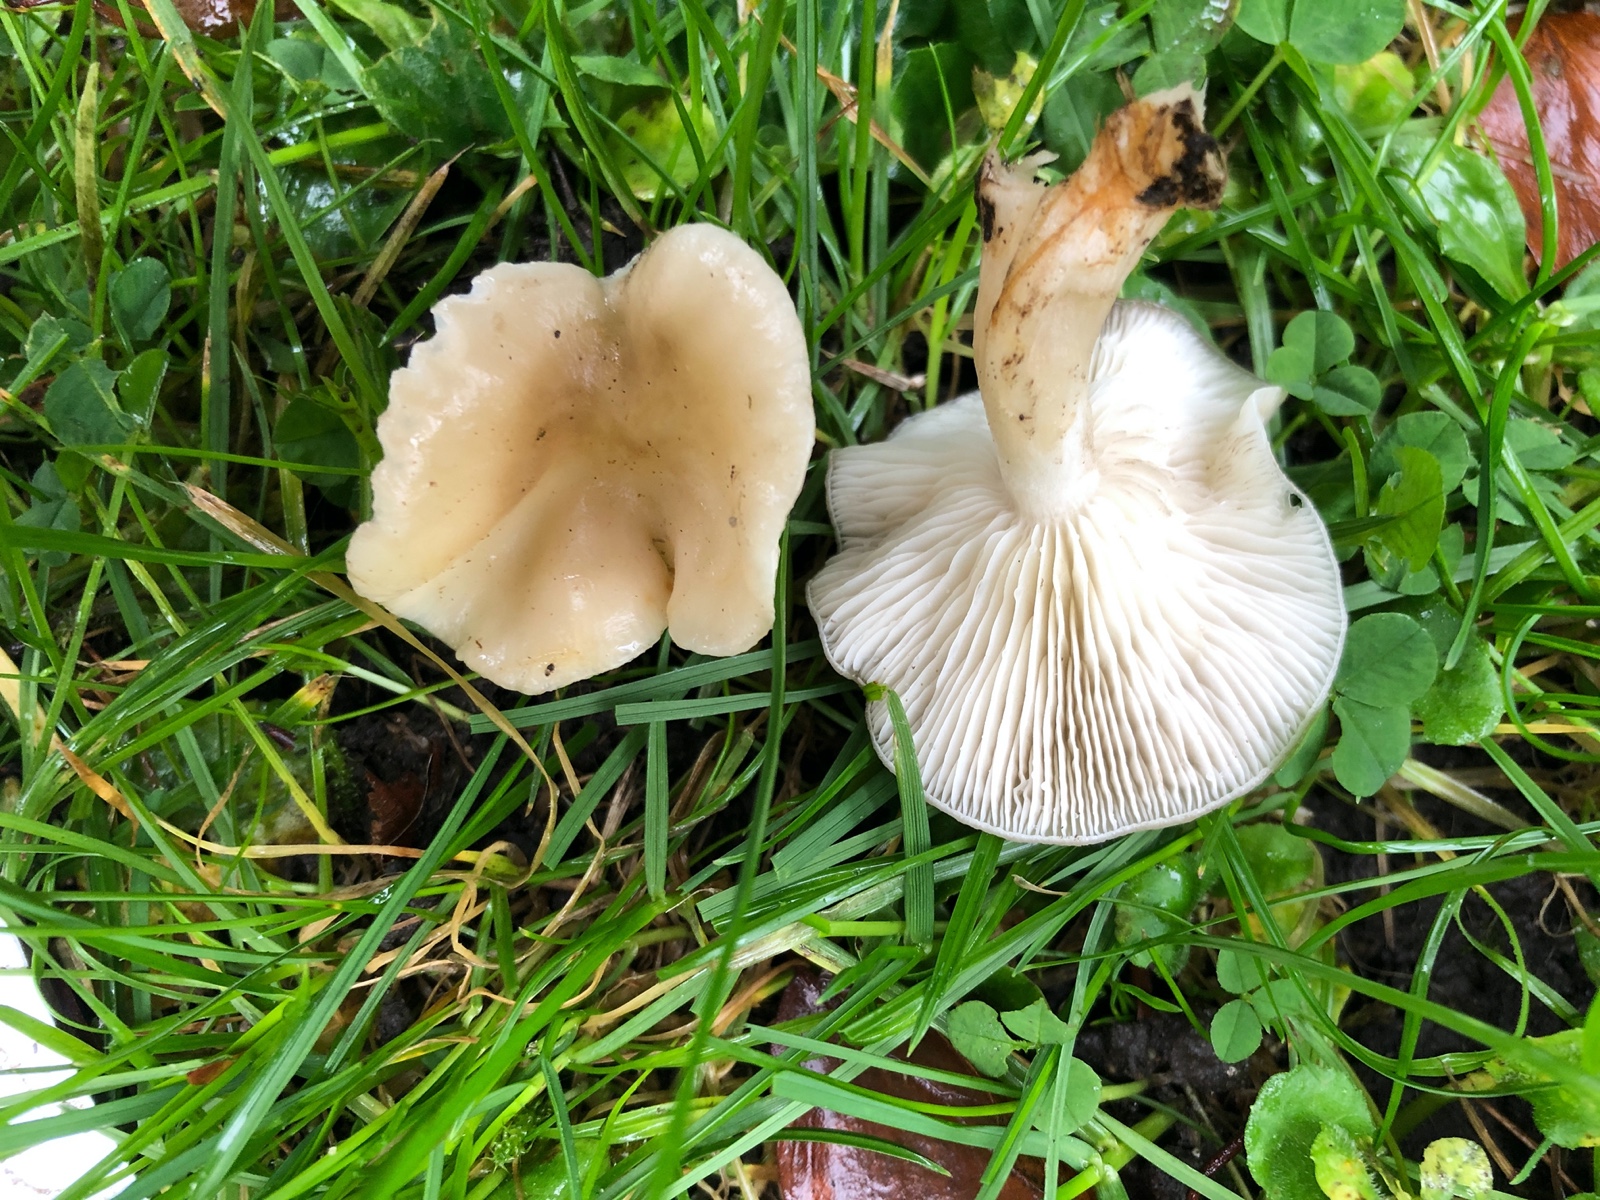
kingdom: Fungi
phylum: Basidiomycota
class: Agaricomycetes
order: Agaricales
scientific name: Agaricales
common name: champignonordenen
